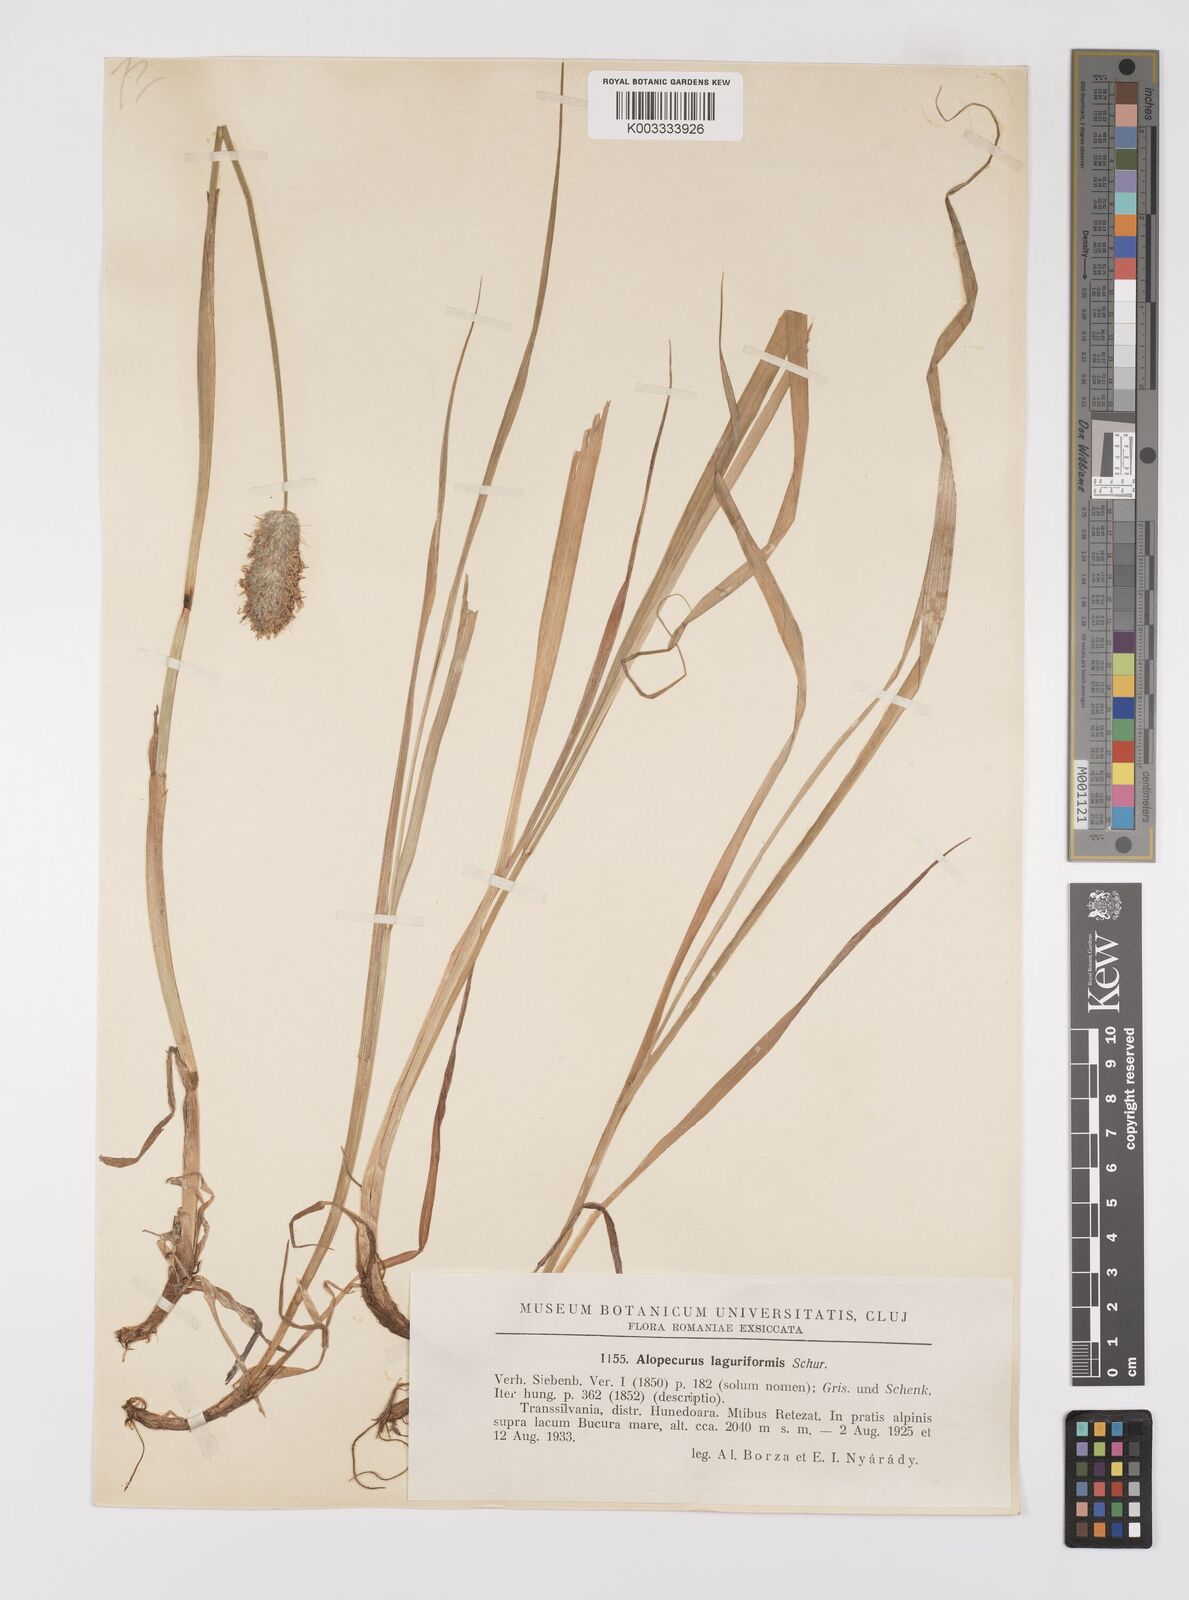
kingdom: Plantae
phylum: Tracheophyta
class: Liliopsida
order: Poales
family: Poaceae
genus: Alopecurus
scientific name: Alopecurus pratensis
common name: Meadow foxtail
